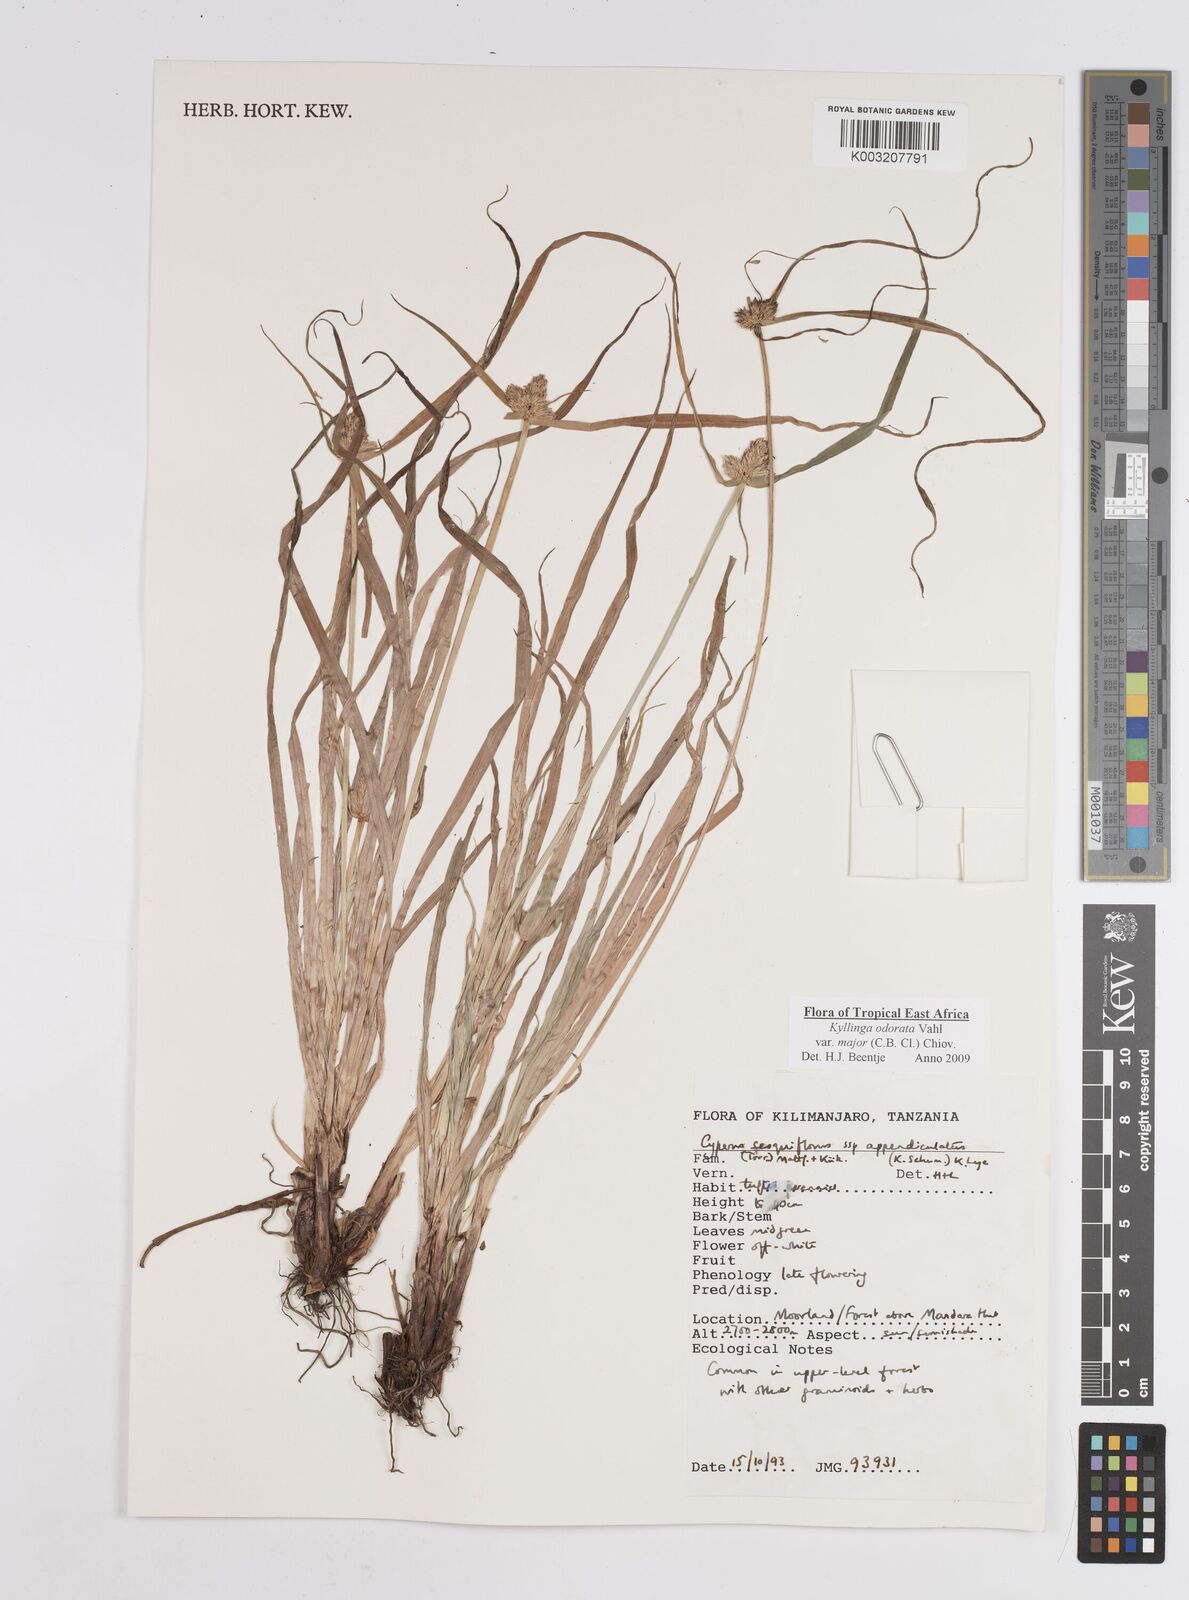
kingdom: Plantae
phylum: Tracheophyta
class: Liliopsida
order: Poales
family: Cyperaceae
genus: Cyperus
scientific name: Cyperus
